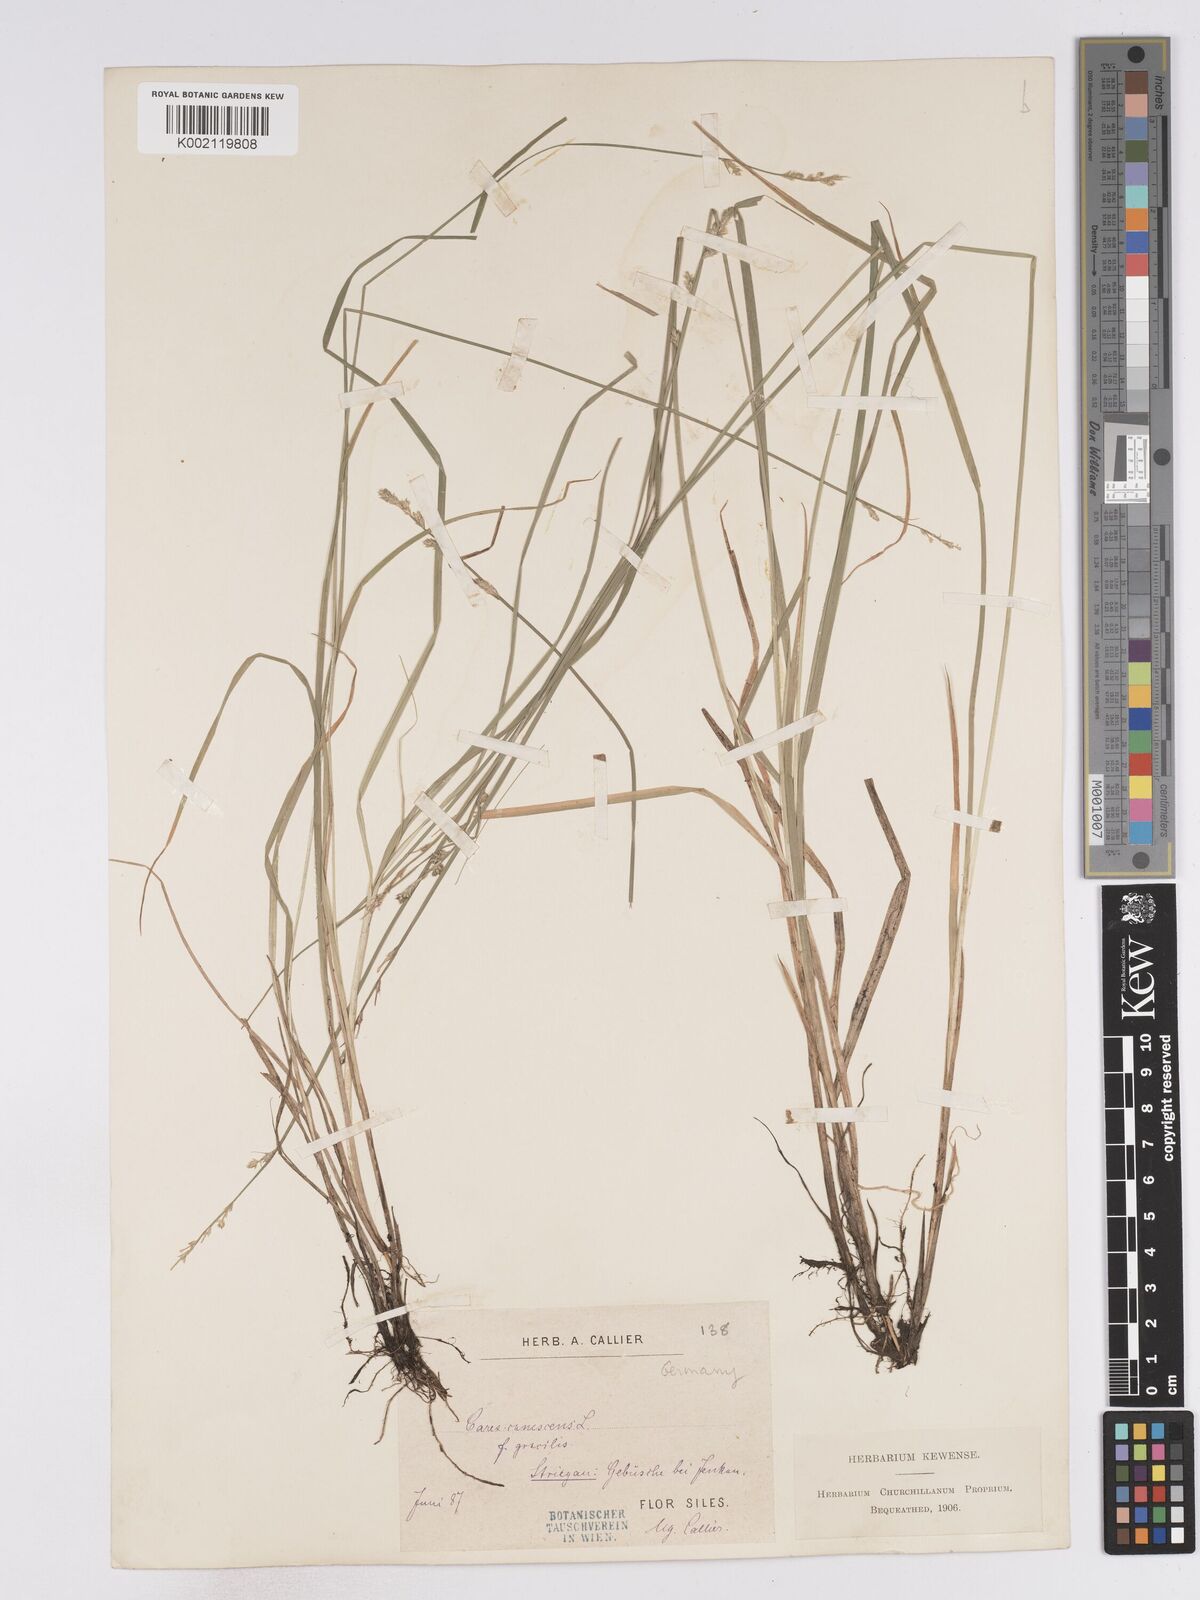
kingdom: Plantae
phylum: Tracheophyta
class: Liliopsida
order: Poales
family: Cyperaceae
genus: Carex
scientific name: Carex curta
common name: White sedge
